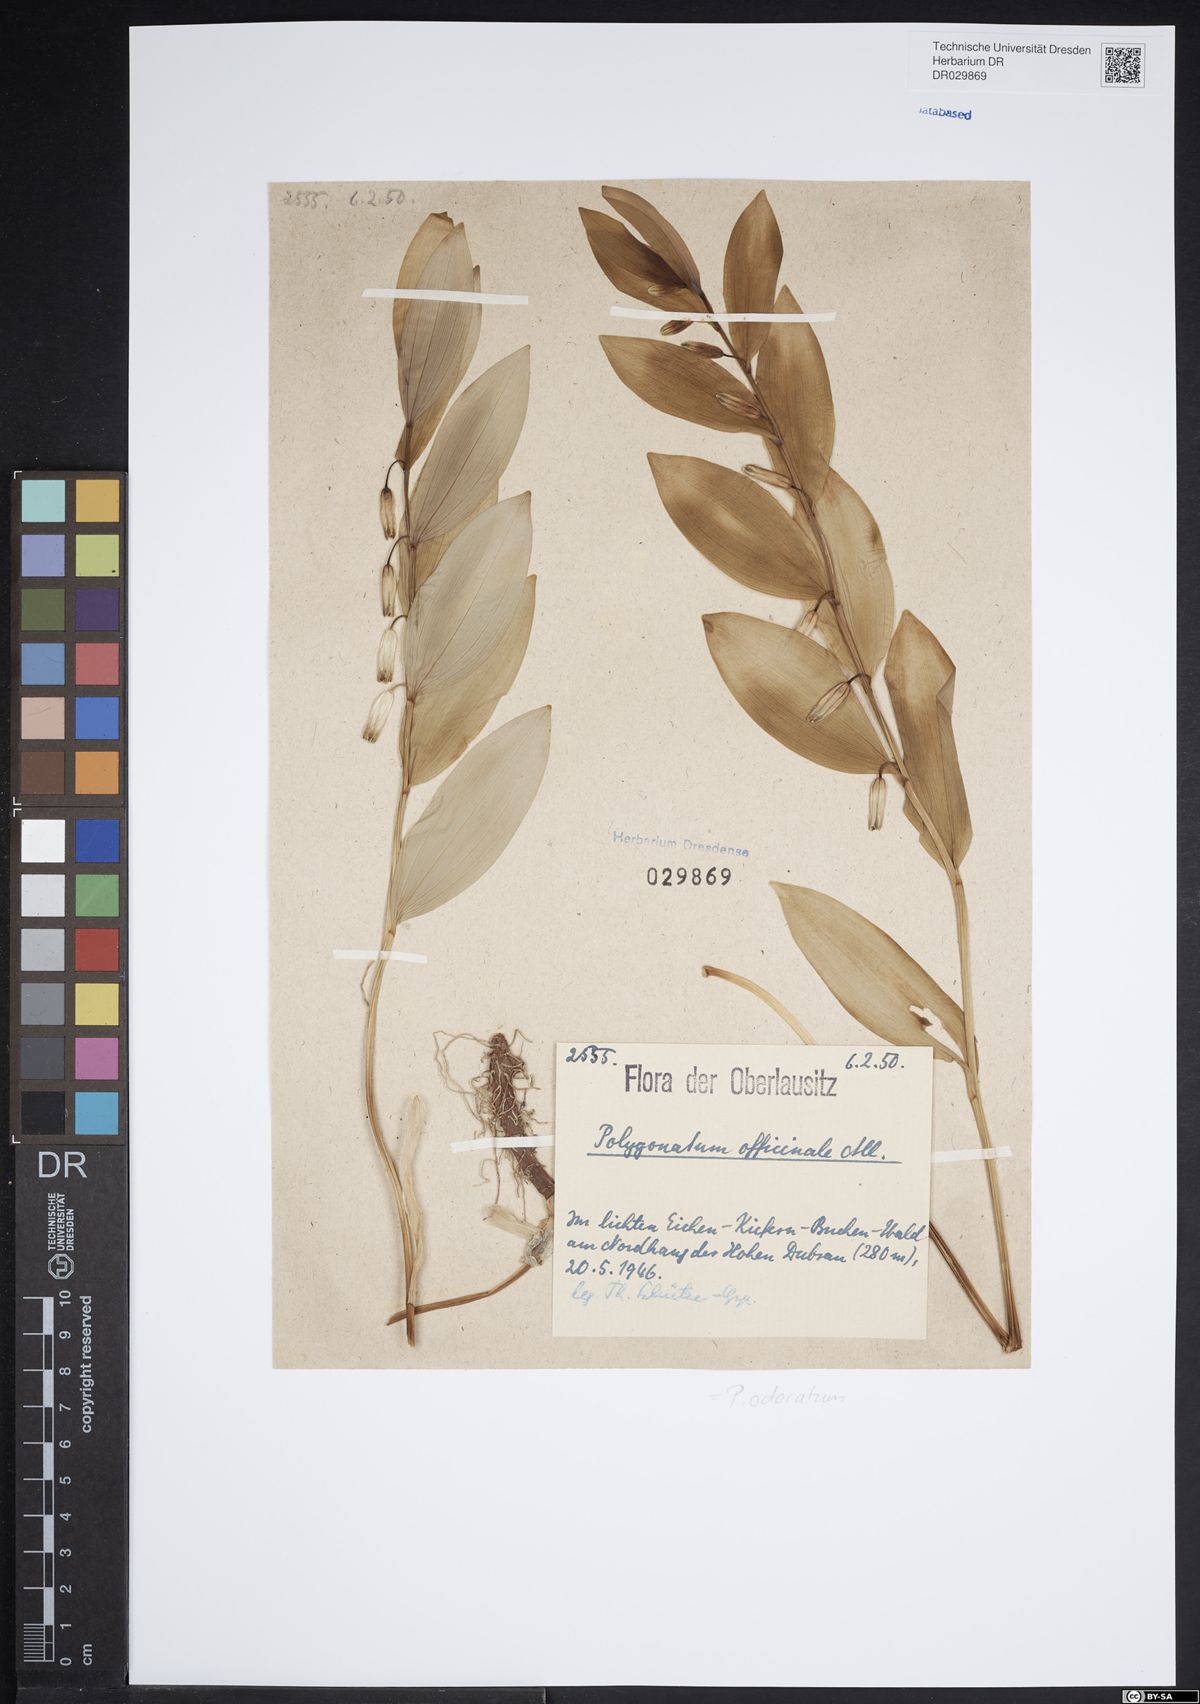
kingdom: Plantae
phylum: Tracheophyta
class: Liliopsida
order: Asparagales
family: Asparagaceae
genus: Polygonatum
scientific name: Polygonatum odoratum
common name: Angular solomon's-seal
